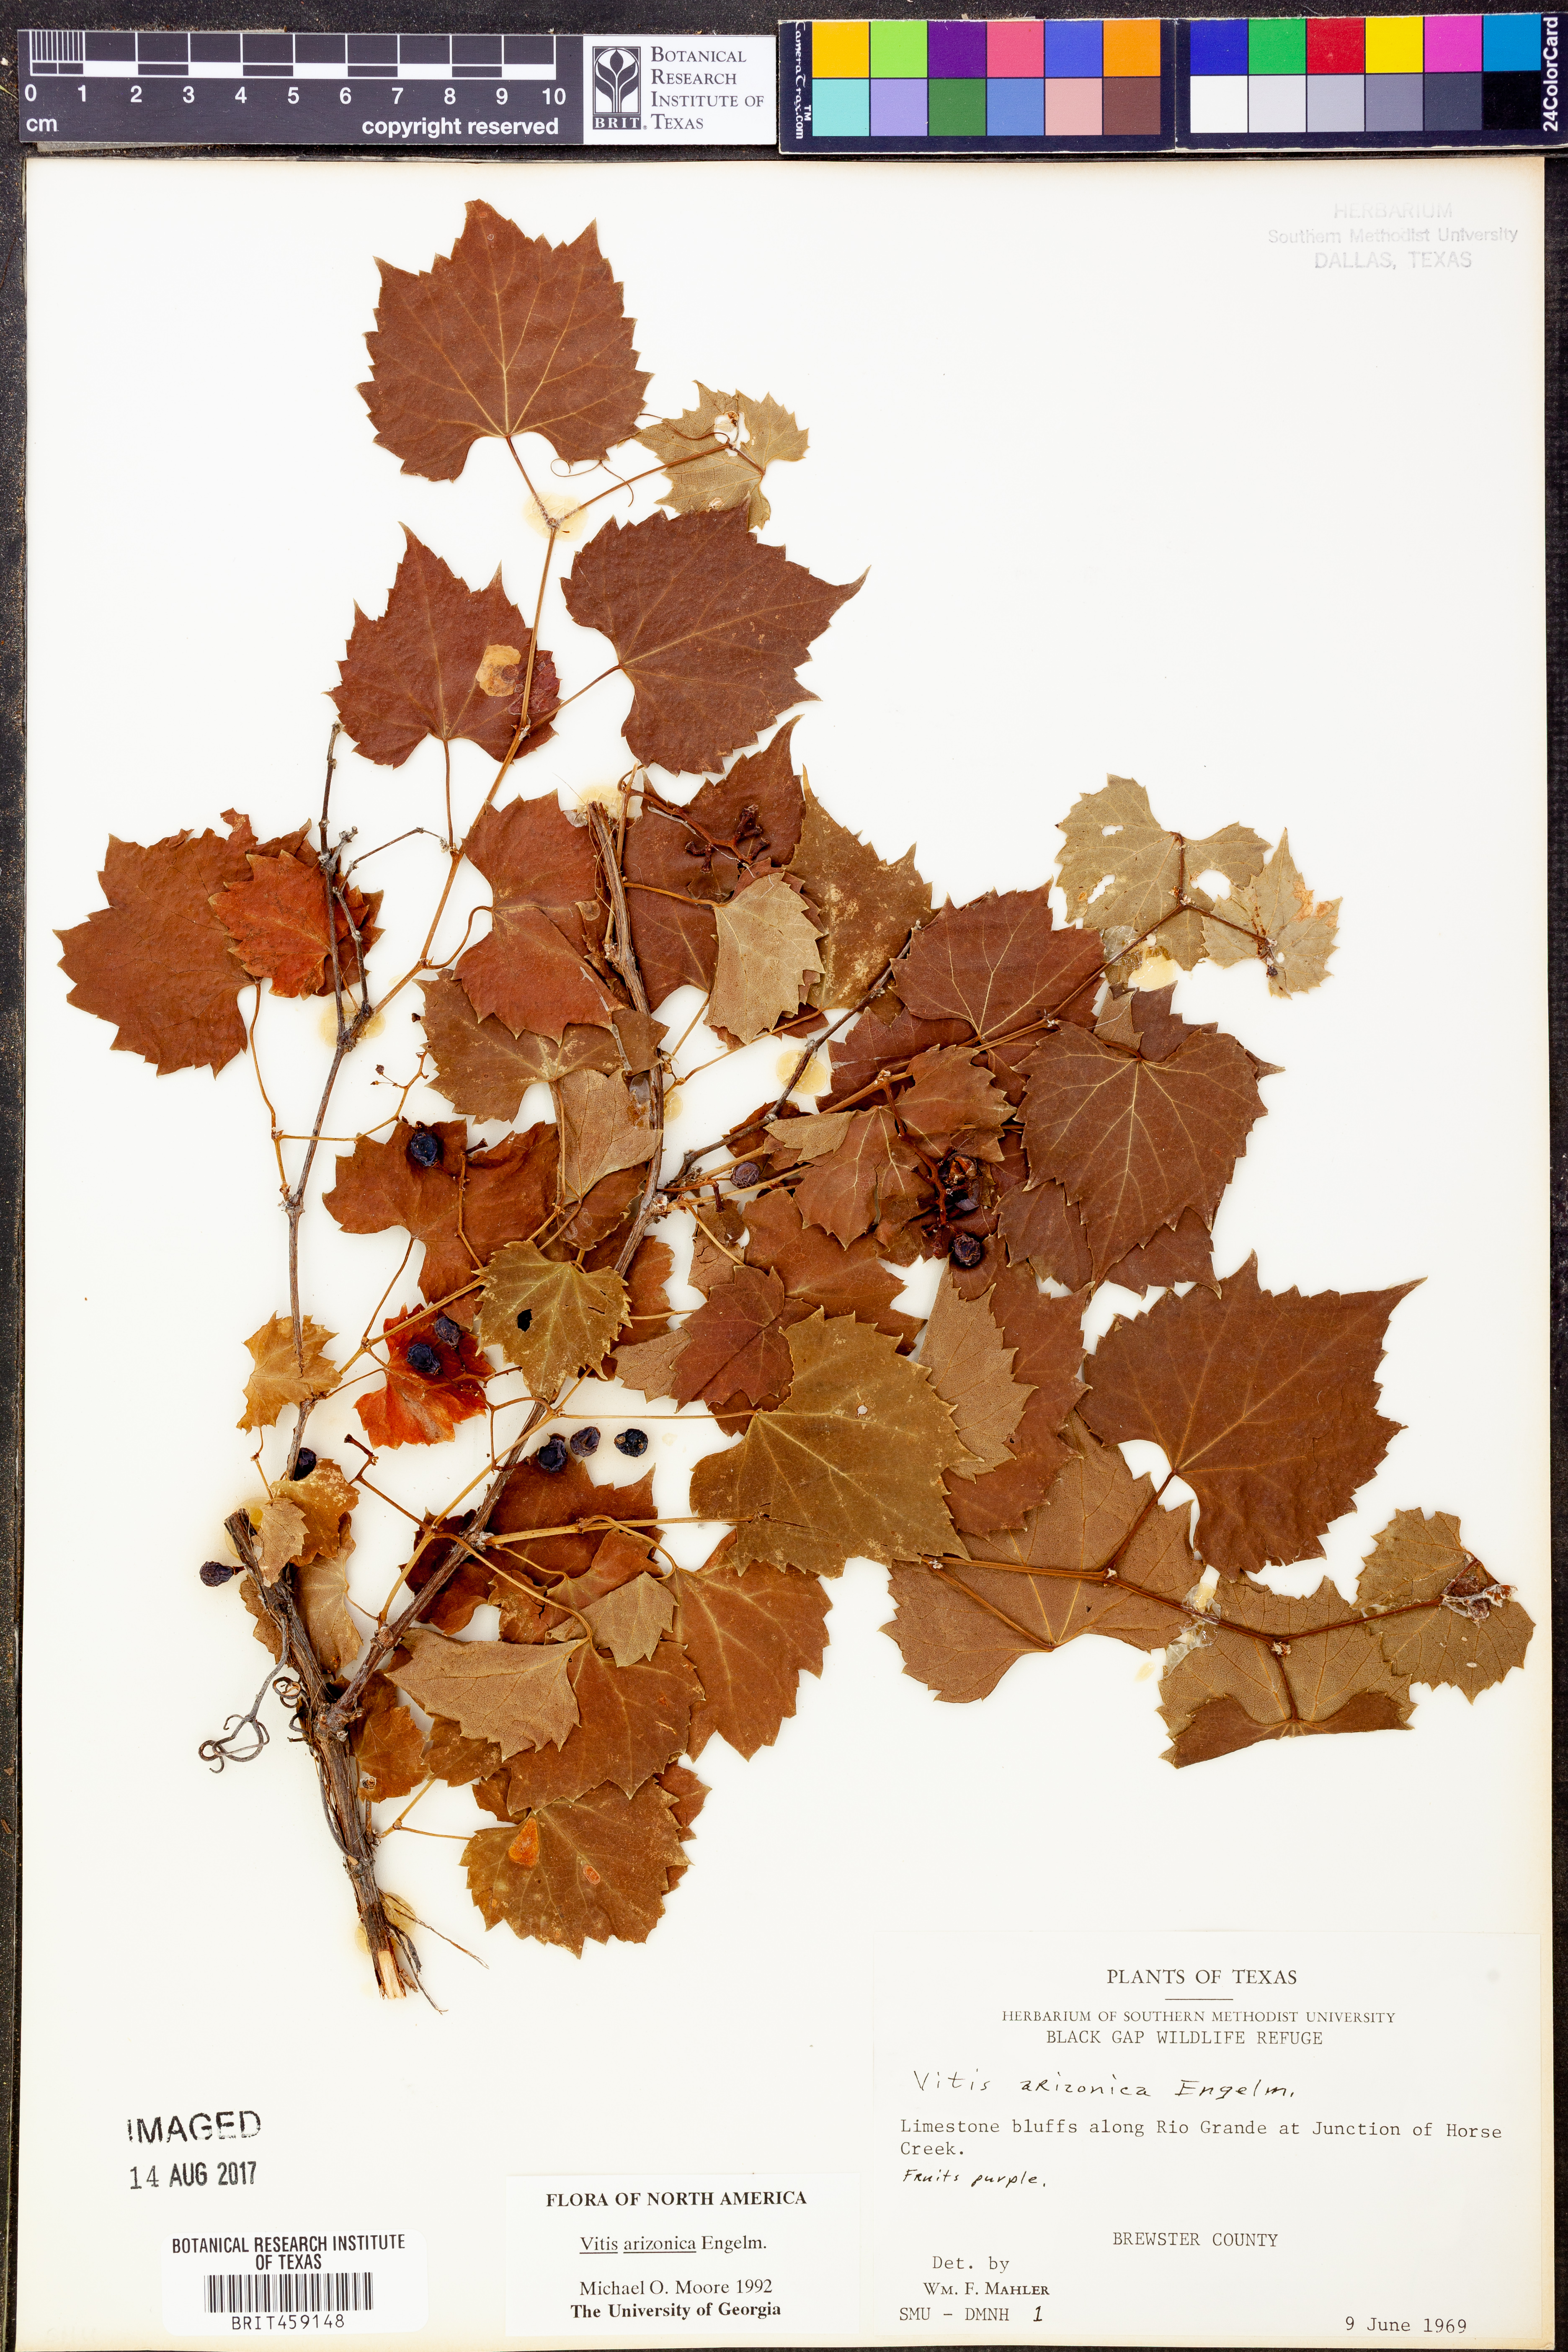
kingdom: Plantae
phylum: Tracheophyta
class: Magnoliopsida
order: Vitales
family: Vitaceae
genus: Vitis
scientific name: Vitis arizonica
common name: Canyon grape
